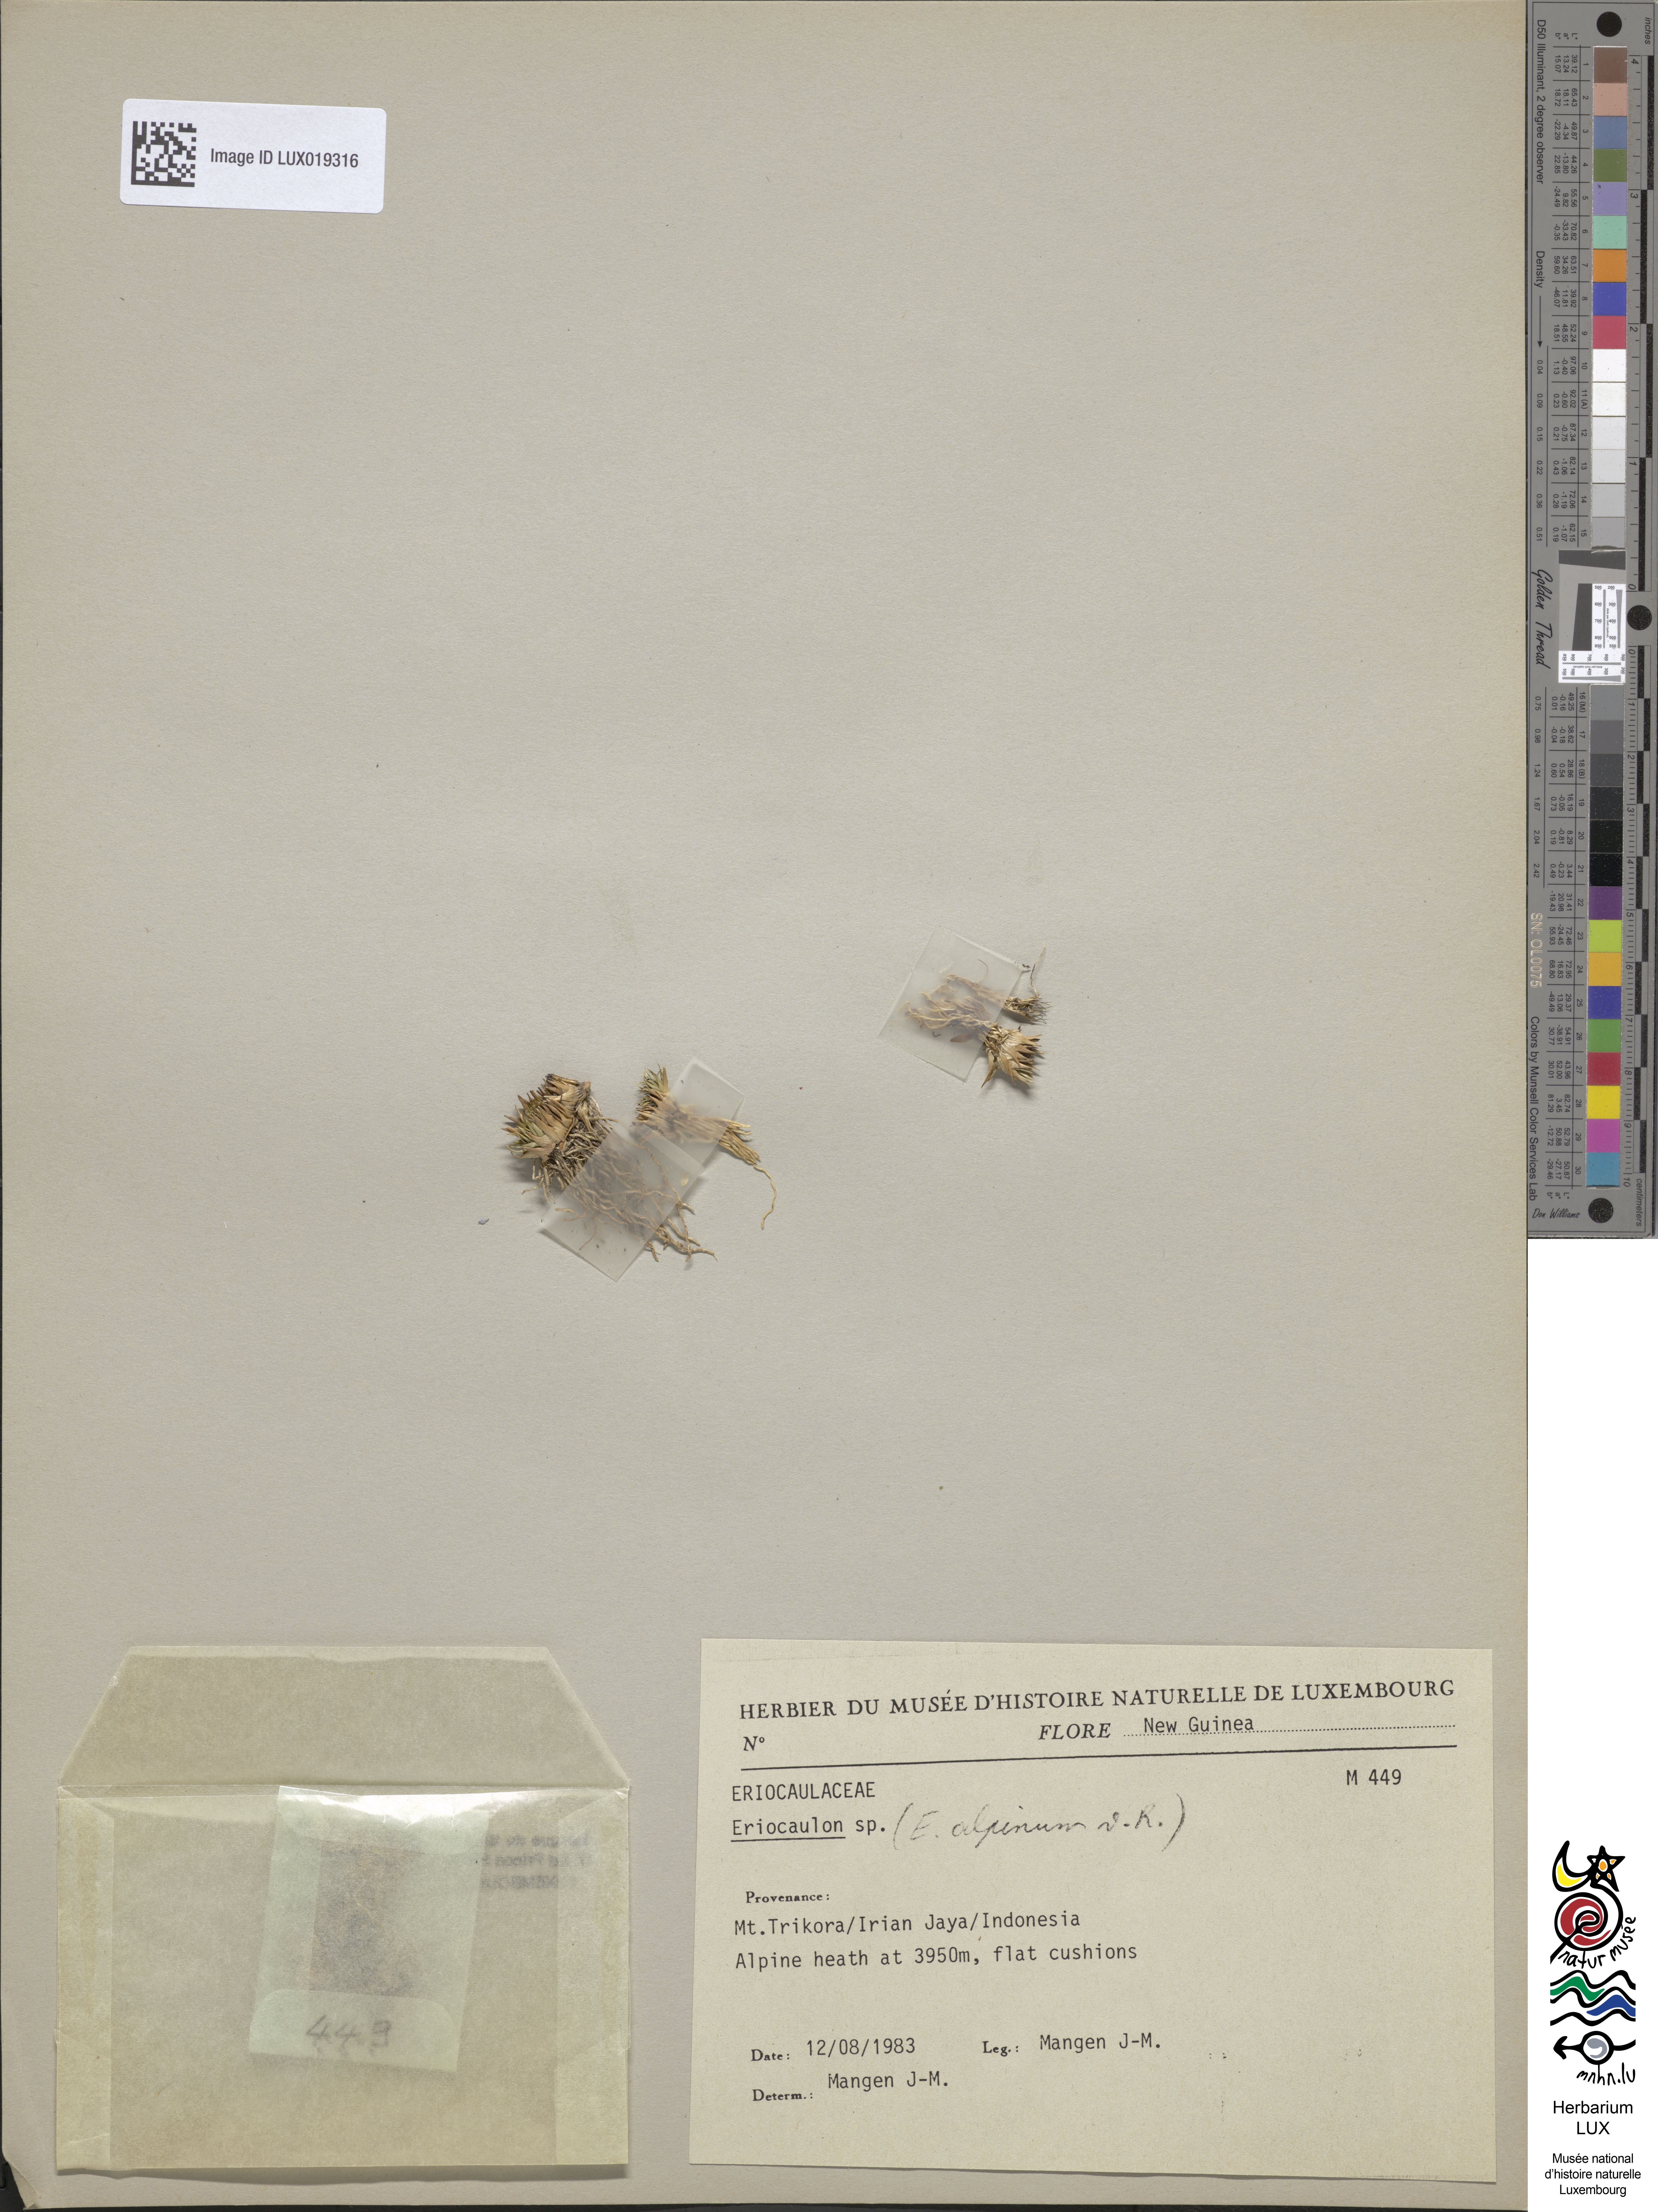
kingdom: Plantae
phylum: Tracheophyta
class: Liliopsida
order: Poales
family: Eriocaulaceae
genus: Eriocaulon
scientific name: Eriocaulon alpinum
